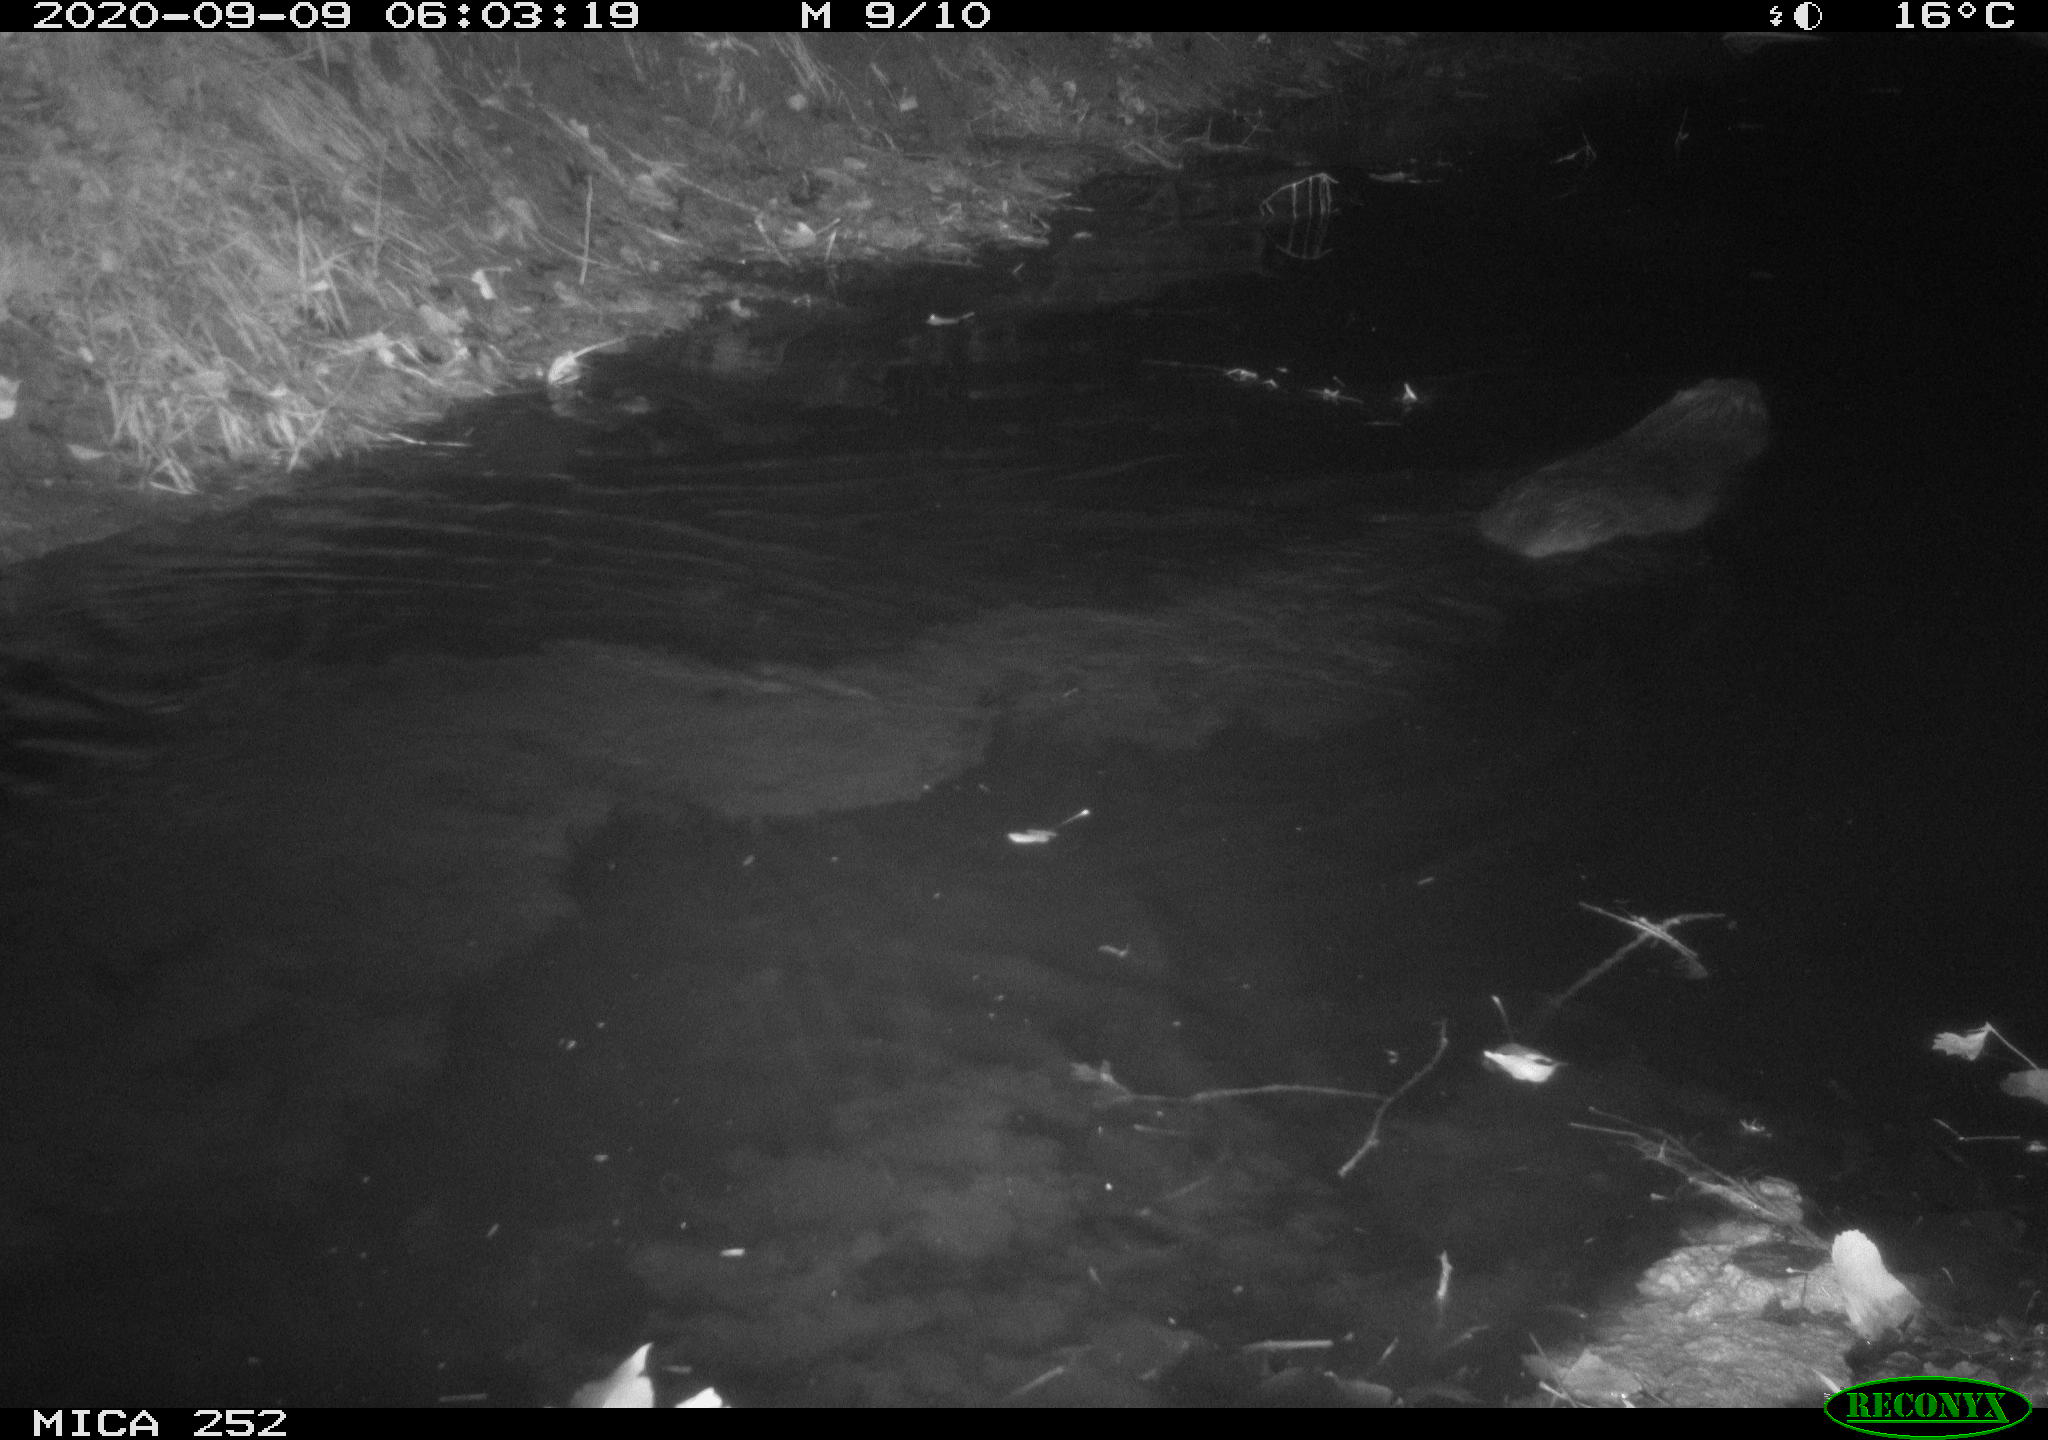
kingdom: Animalia
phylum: Chordata
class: Mammalia
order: Rodentia
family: Castoridae
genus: Castor
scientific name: Castor fiber
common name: Eurasian beaver
